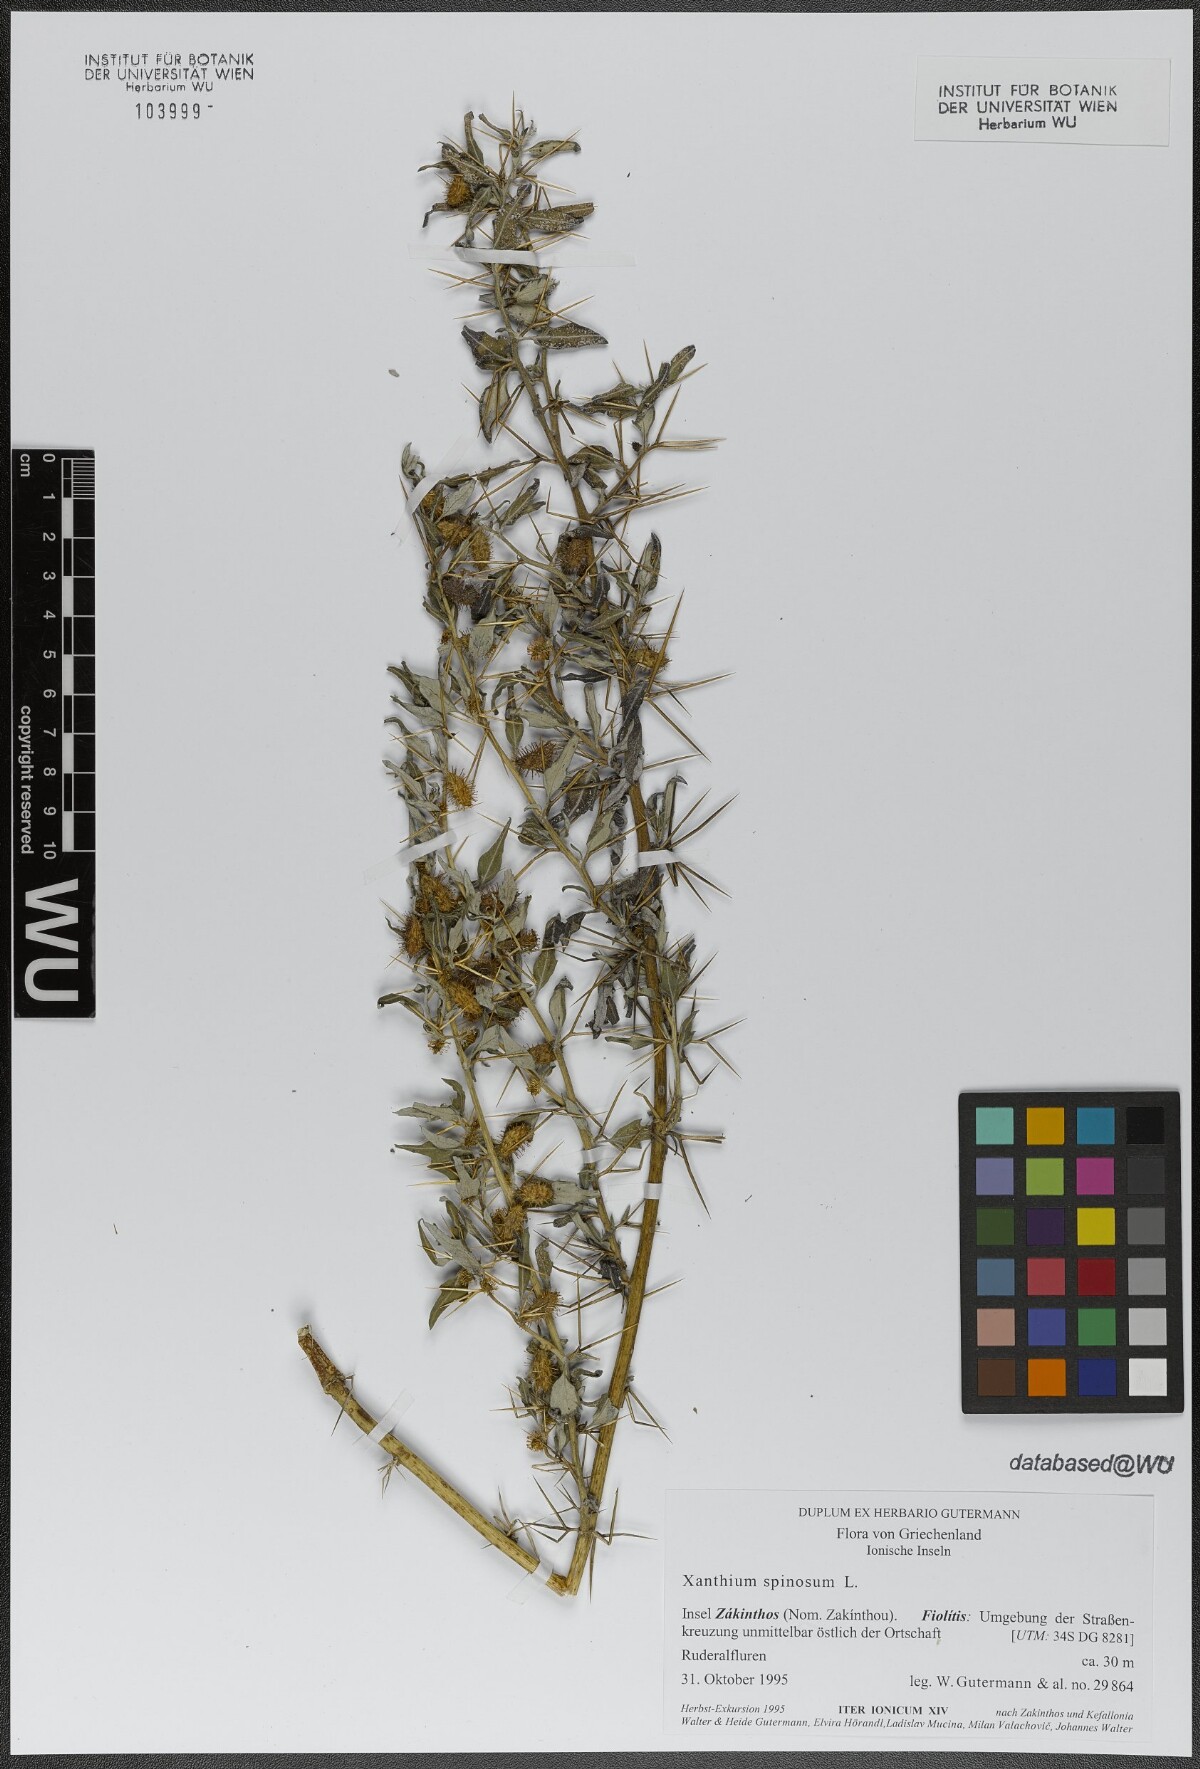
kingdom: Plantae
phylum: Tracheophyta
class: Magnoliopsida
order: Asterales
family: Asteraceae
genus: Xanthium
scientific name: Xanthium spinosum
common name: Spiny cocklebur
